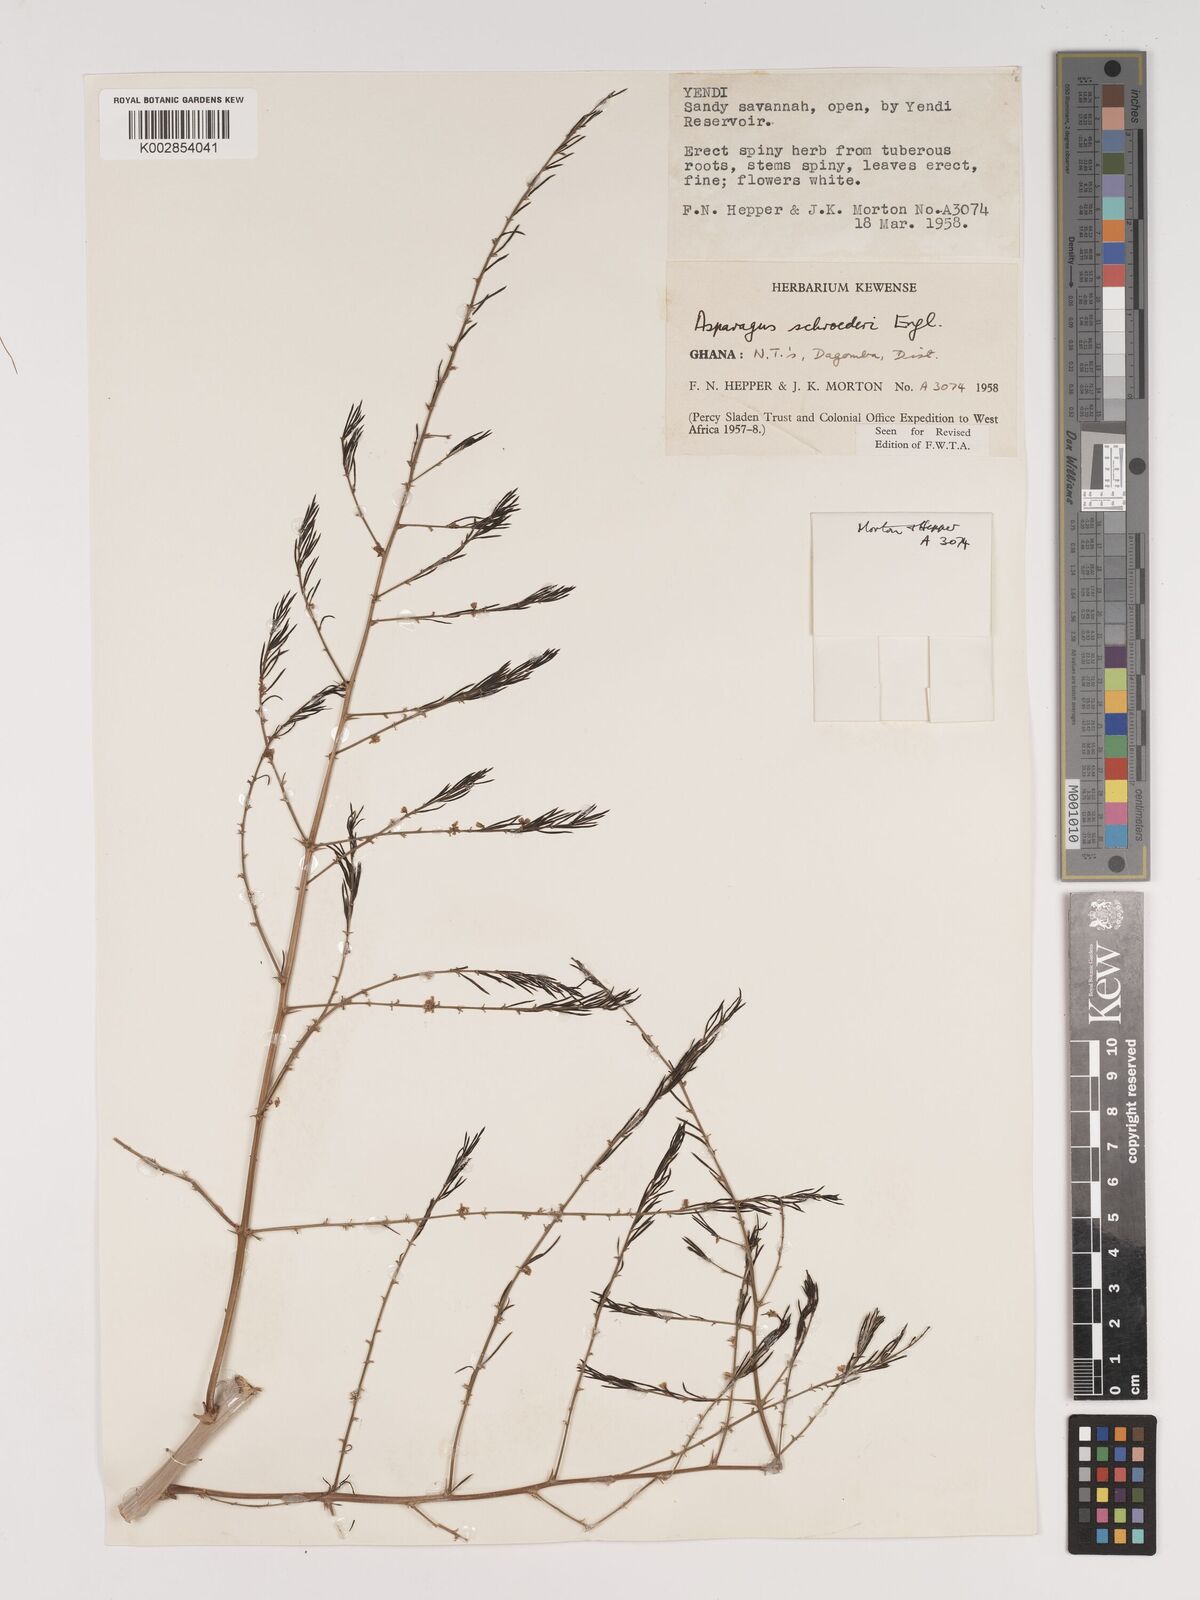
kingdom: Plantae
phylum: Tracheophyta
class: Liliopsida
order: Asparagales
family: Asparagaceae
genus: Asparagus
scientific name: Asparagus schroederi
